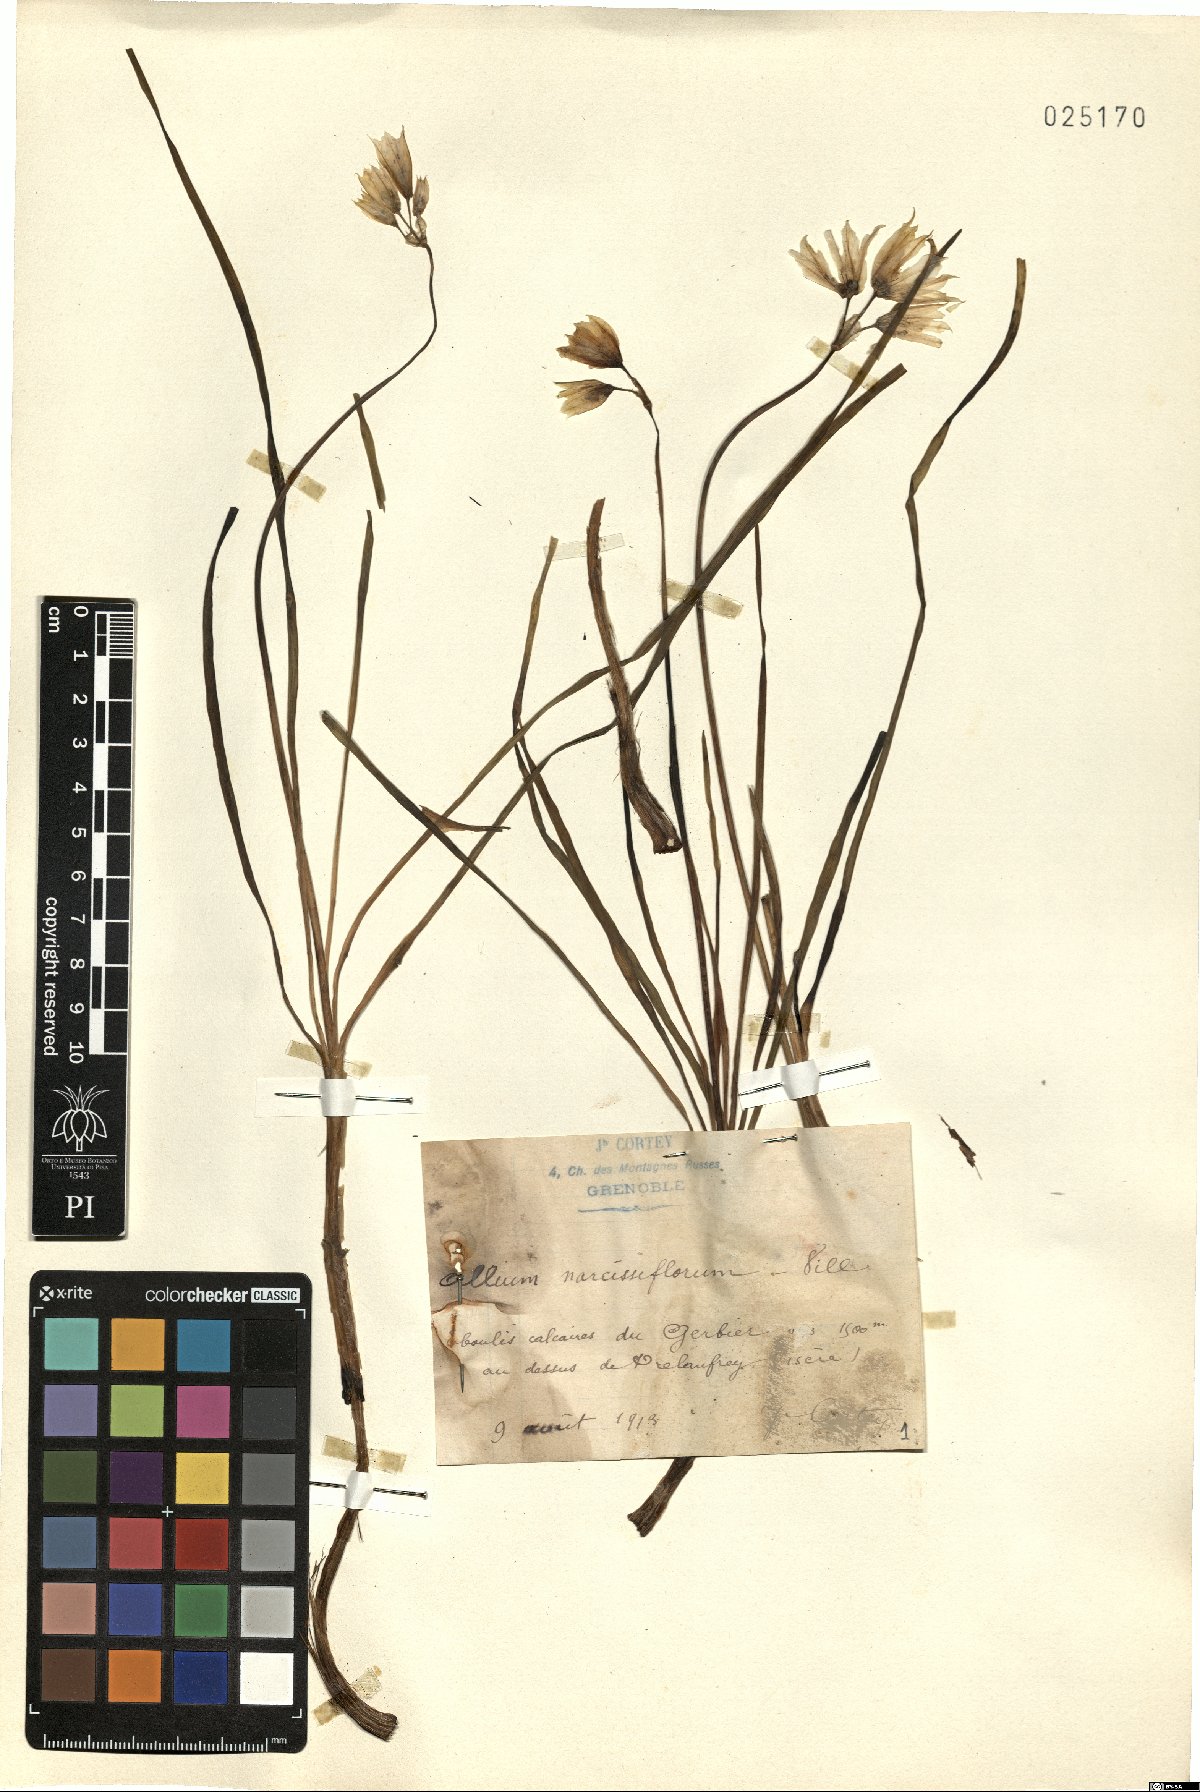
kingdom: Plantae
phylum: Tracheophyta
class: Liliopsida
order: Asparagales
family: Amaryllidaceae
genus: Allium
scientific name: Allium narcissiflorum
